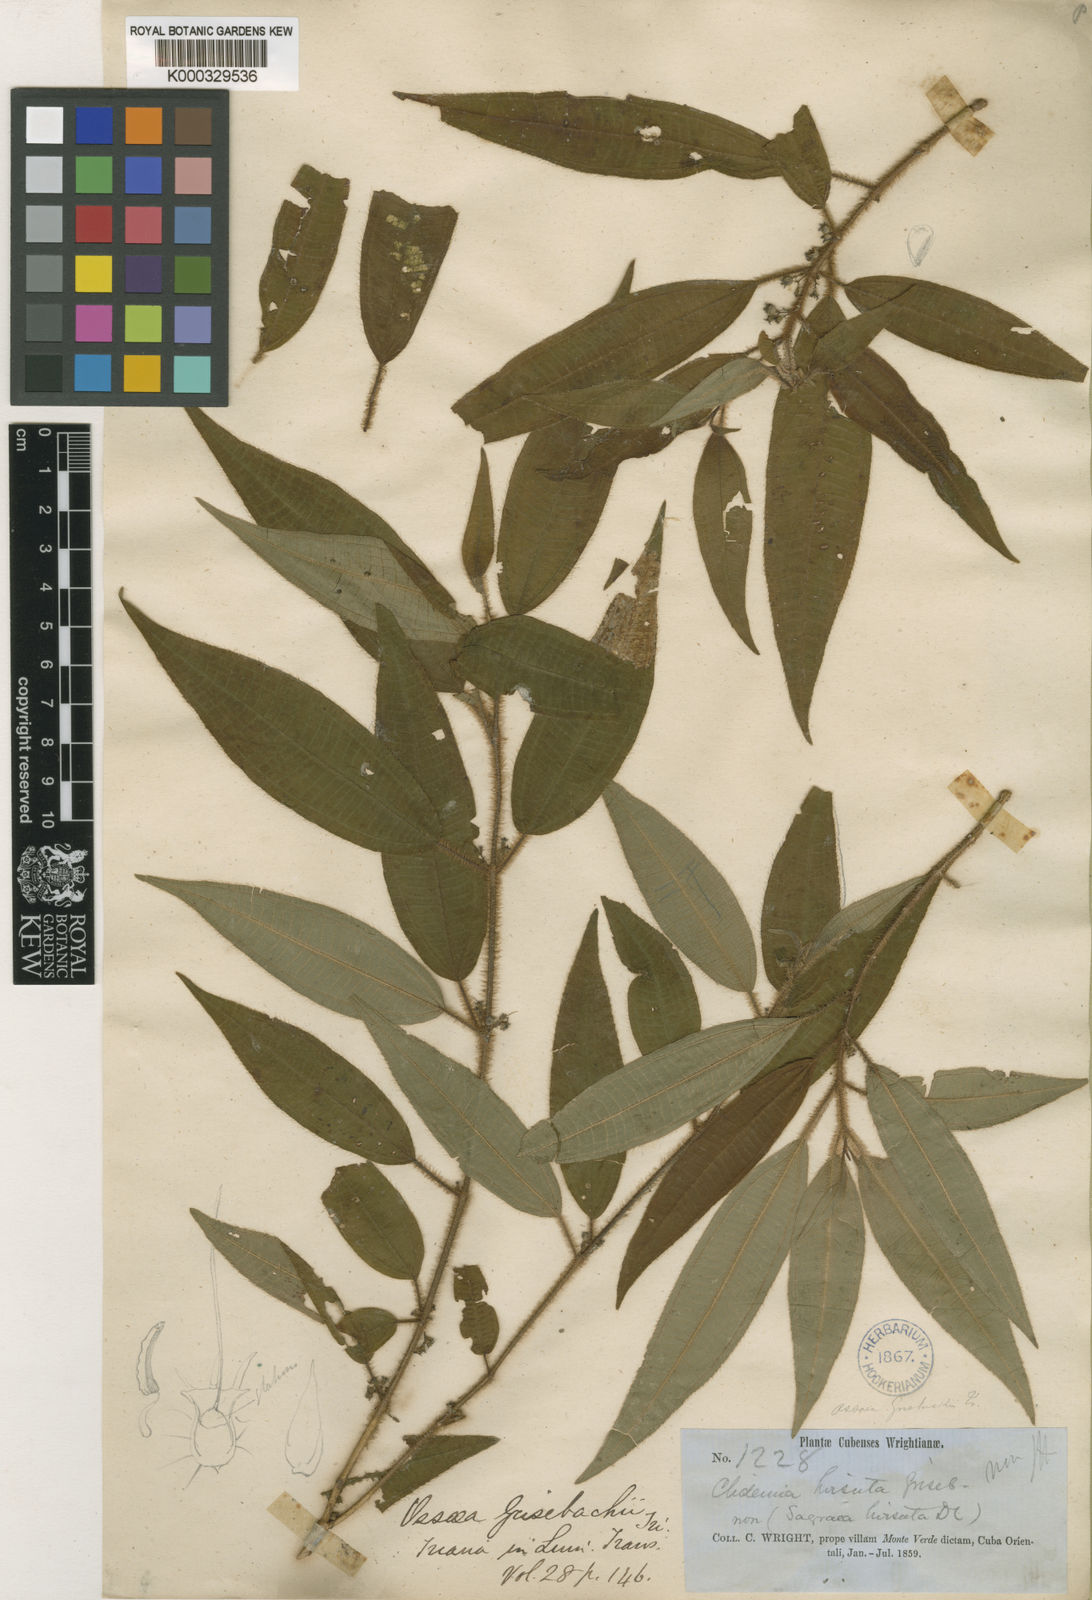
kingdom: Plantae
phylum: Tracheophyta
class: Magnoliopsida
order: Myrtales
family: Melastomataceae
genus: Miconia
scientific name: Miconia capillinervis
